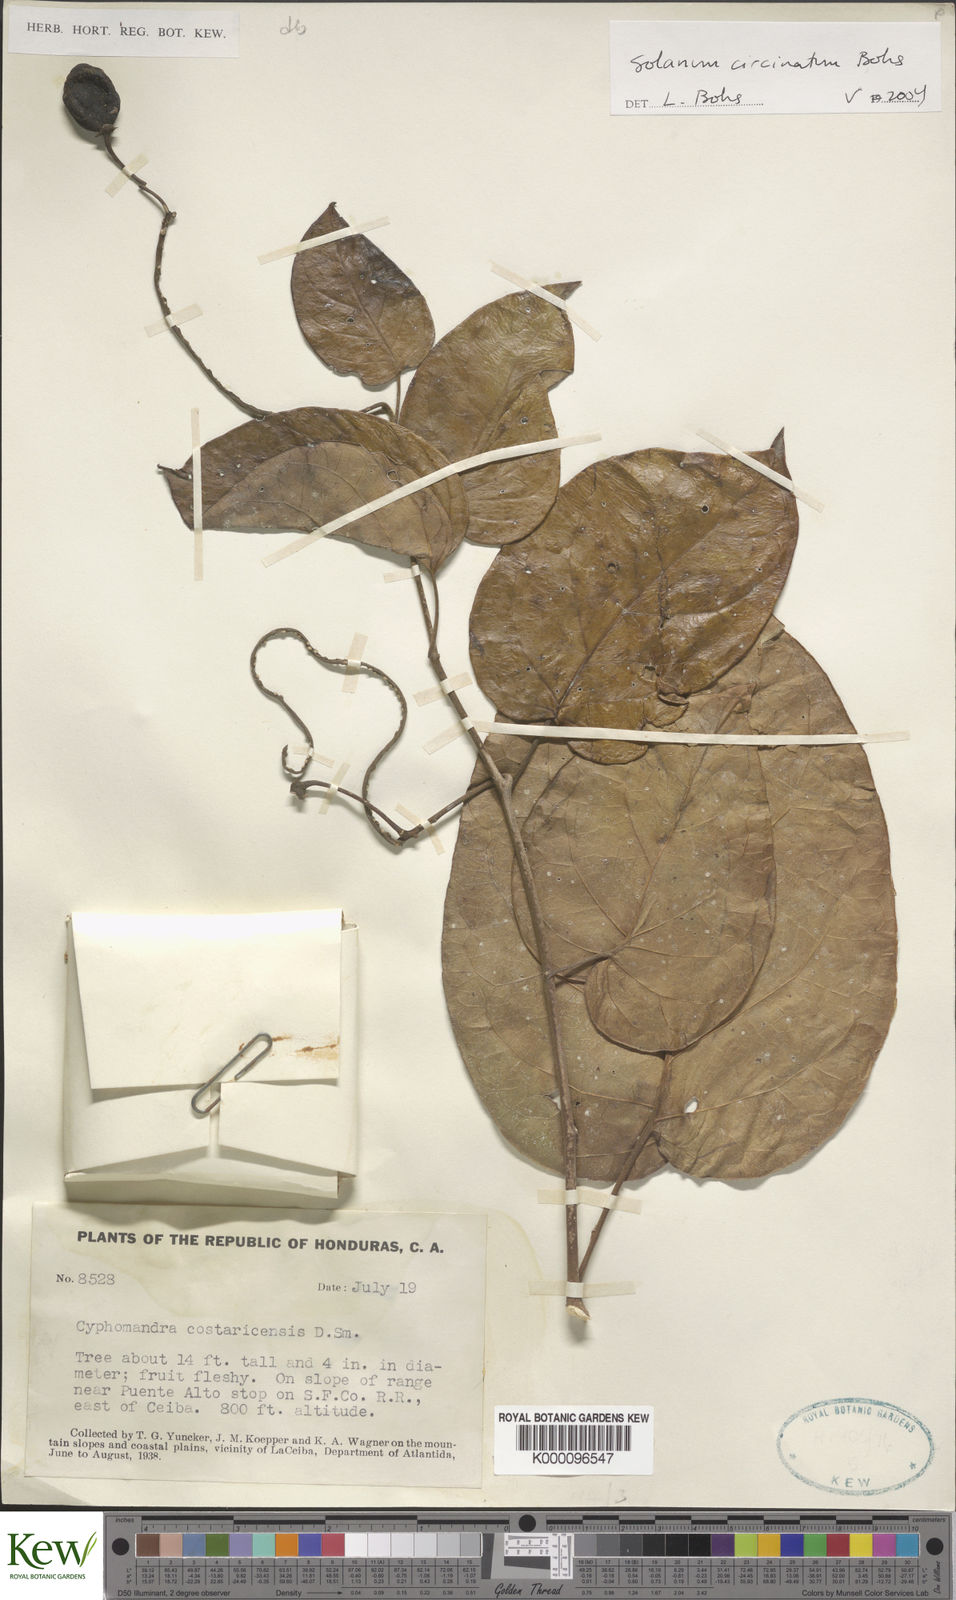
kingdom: Plantae
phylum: Tracheophyta
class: Magnoliopsida
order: Solanales
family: Solanaceae
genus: Solanum
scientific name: Solanum splendens
